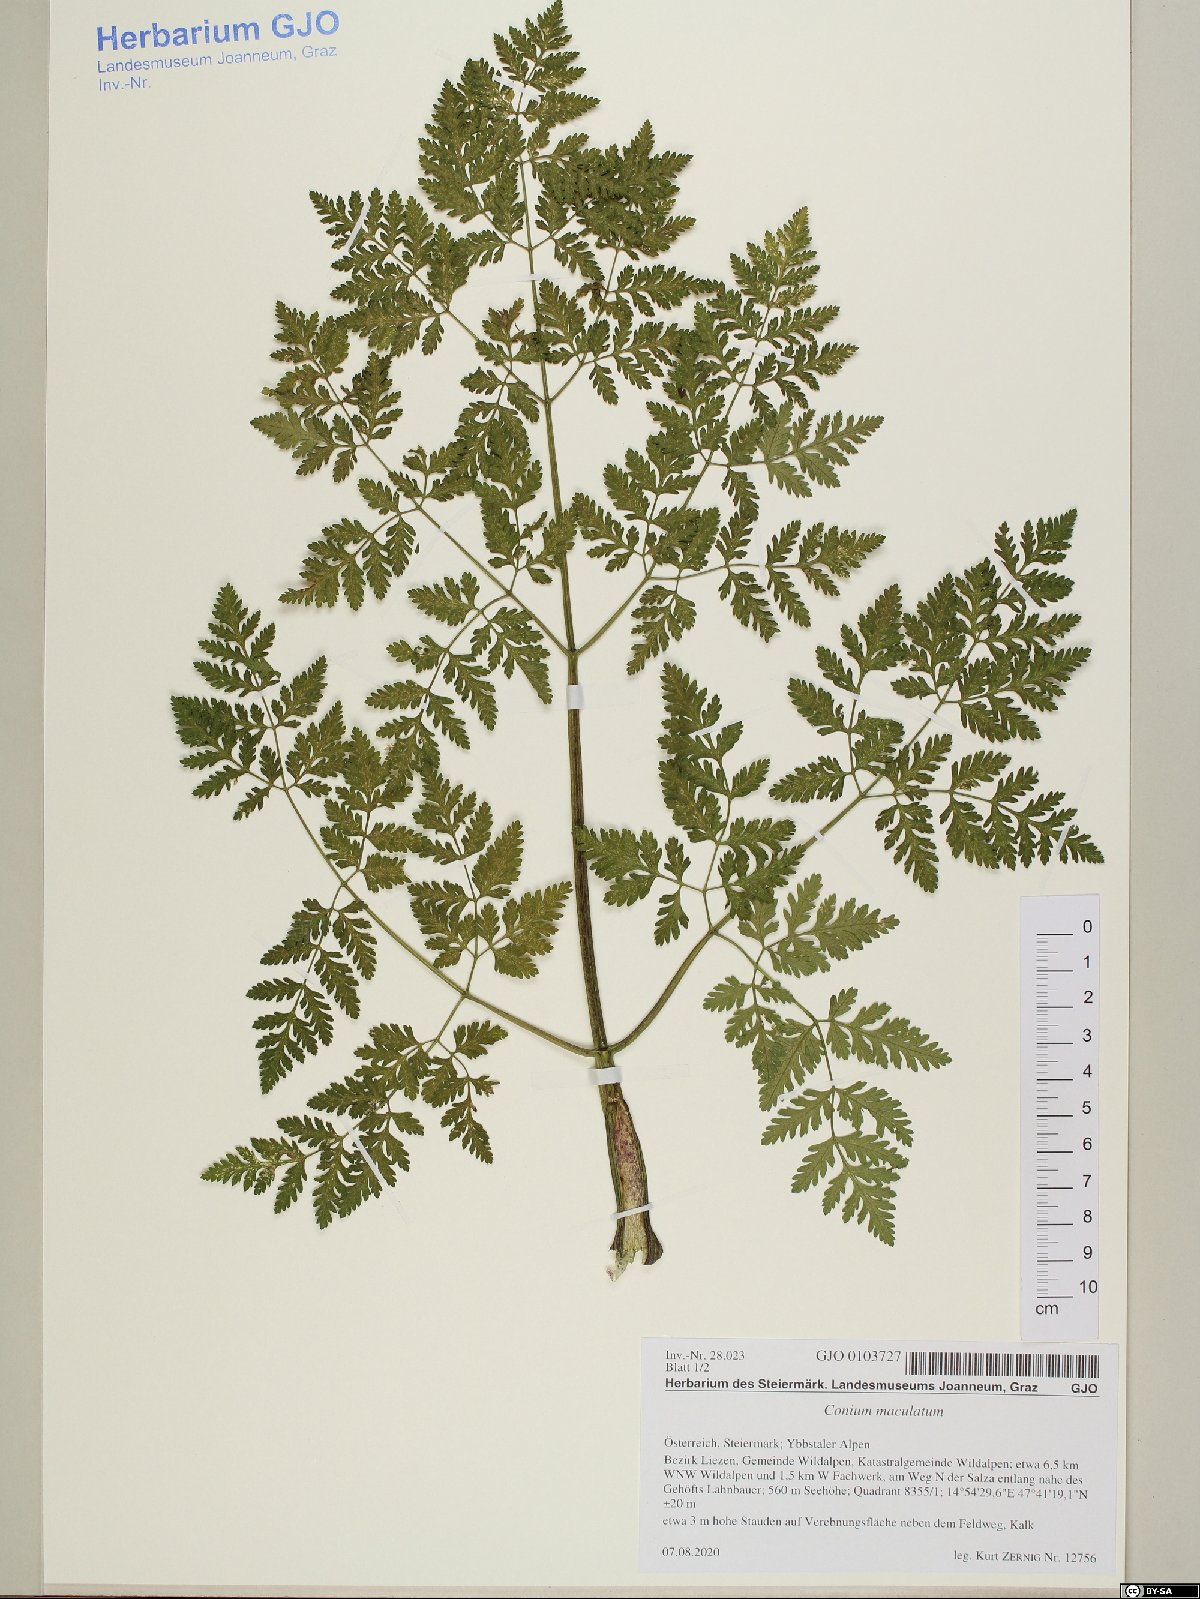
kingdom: Plantae
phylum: Tracheophyta
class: Magnoliopsida
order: Apiales
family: Apiaceae
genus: Conium
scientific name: Conium maculatum
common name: Hemlock
